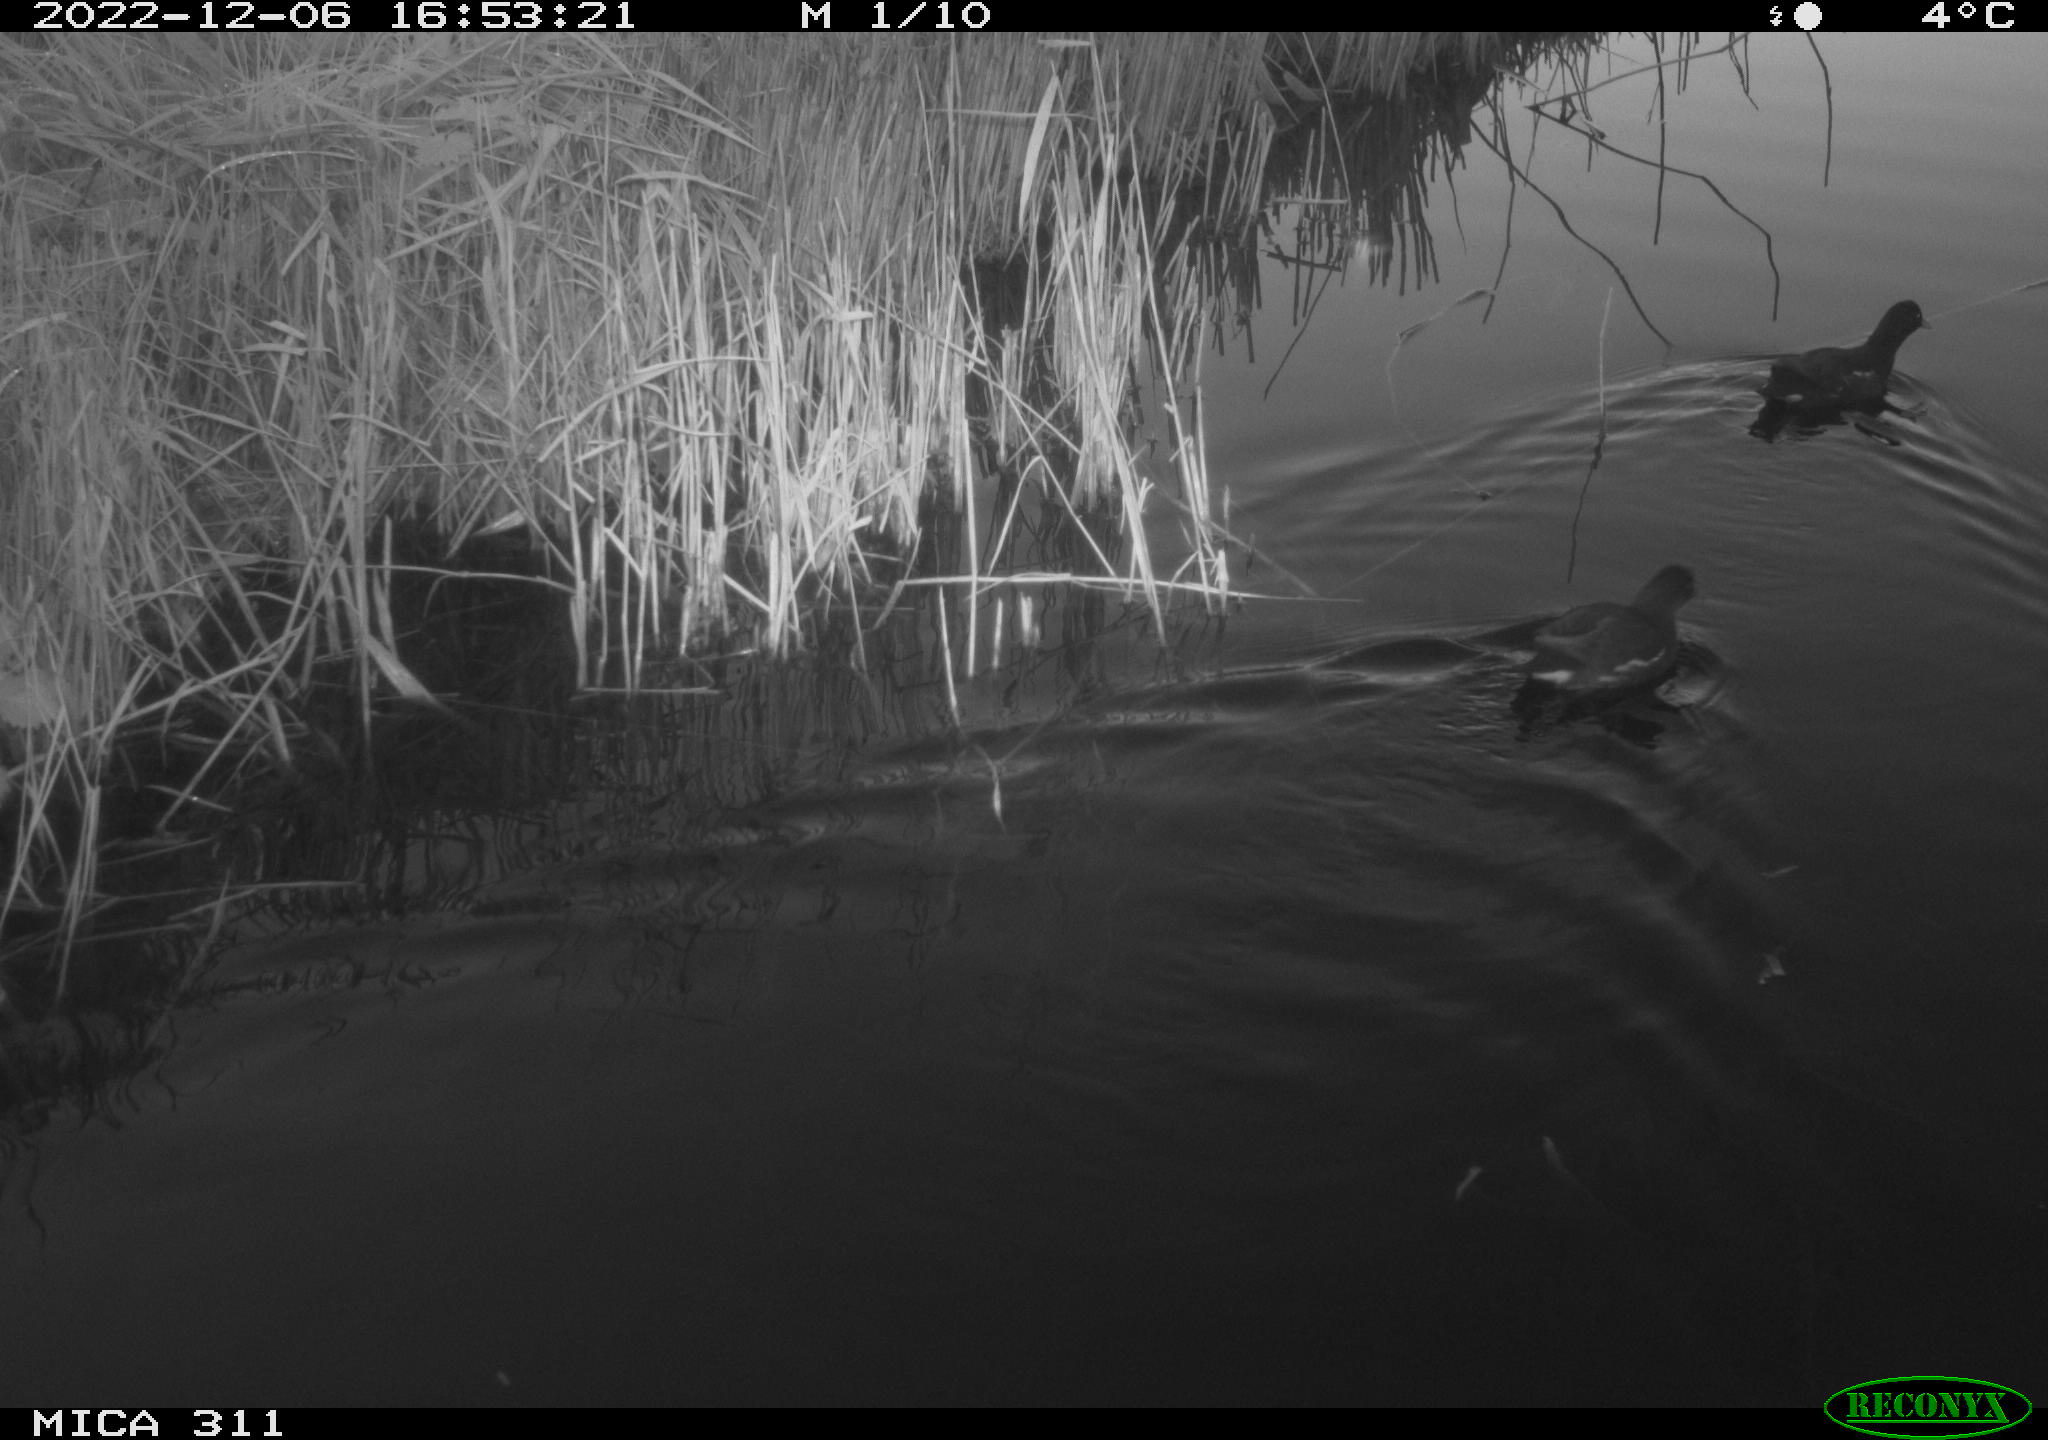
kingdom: Animalia
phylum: Chordata
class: Aves
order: Gruiformes
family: Rallidae
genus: Gallinula
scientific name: Gallinula chloropus
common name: Common moorhen
